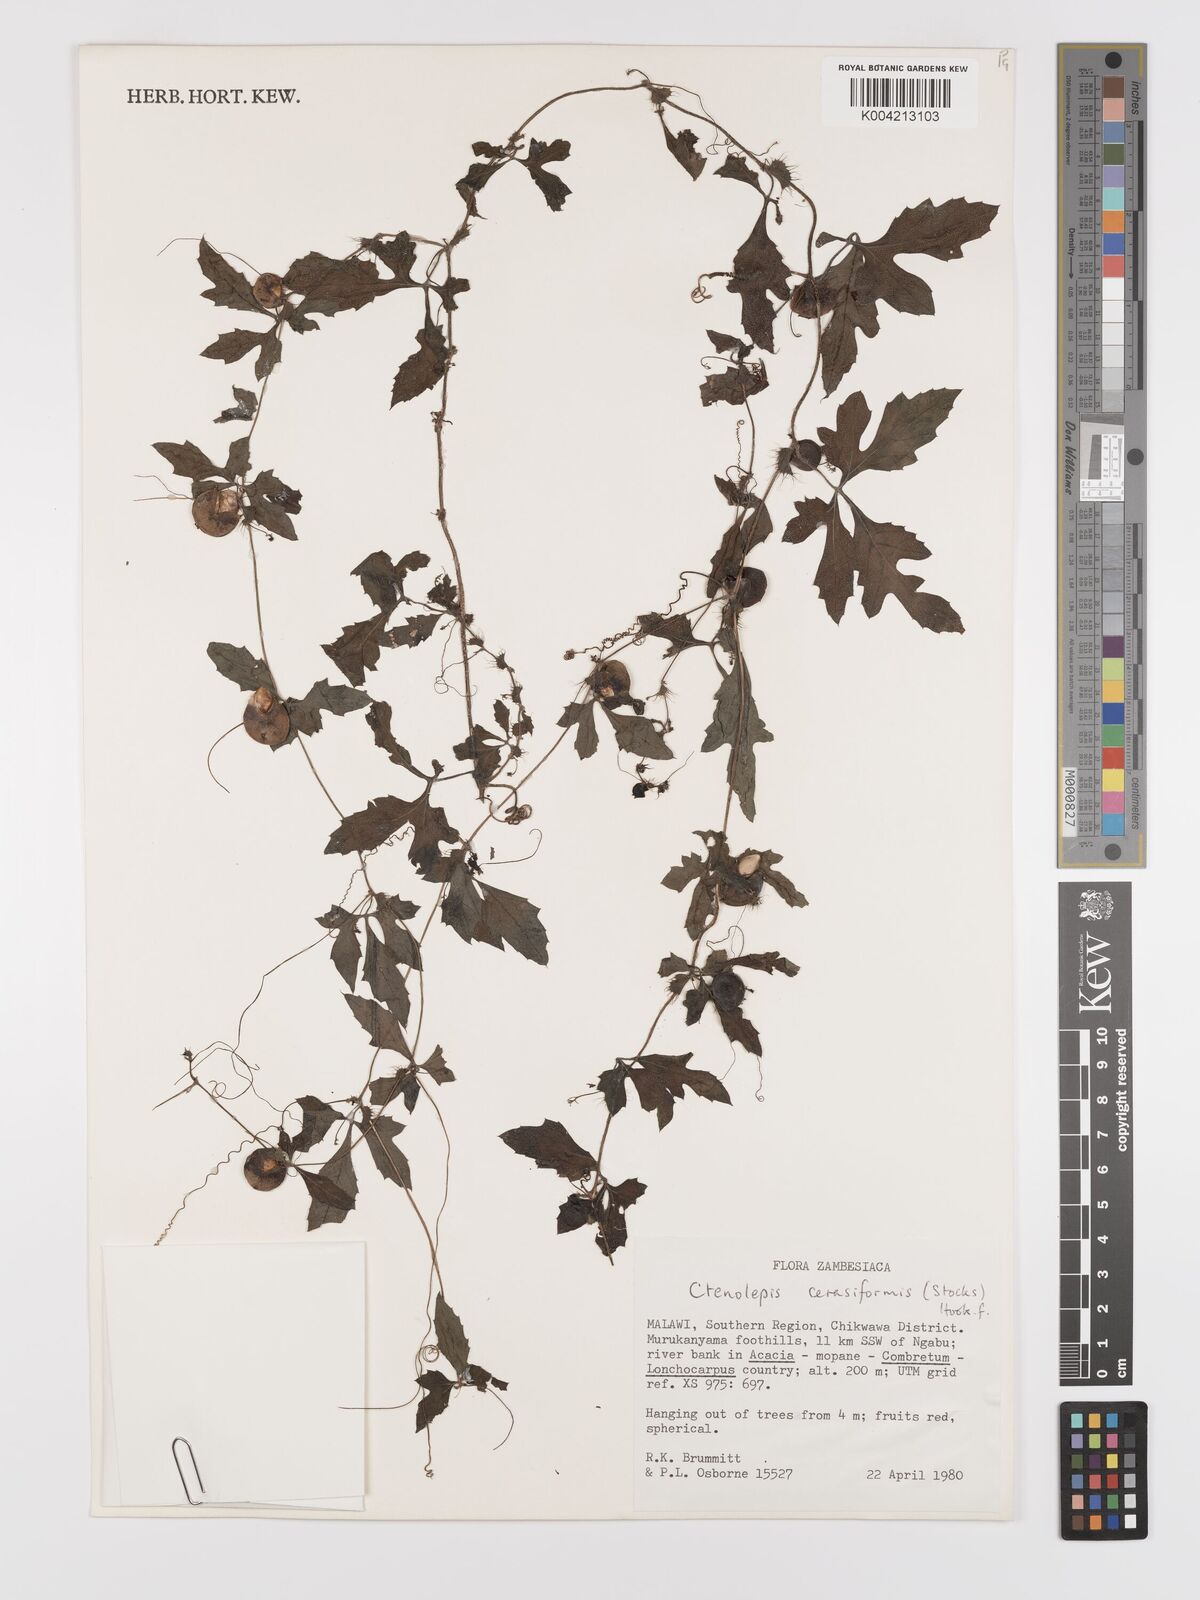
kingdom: Plantae
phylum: Tracheophyta
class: Magnoliopsida
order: Cucurbitales
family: Cucurbitaceae
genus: Blastania
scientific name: Blastania cerasiformis
